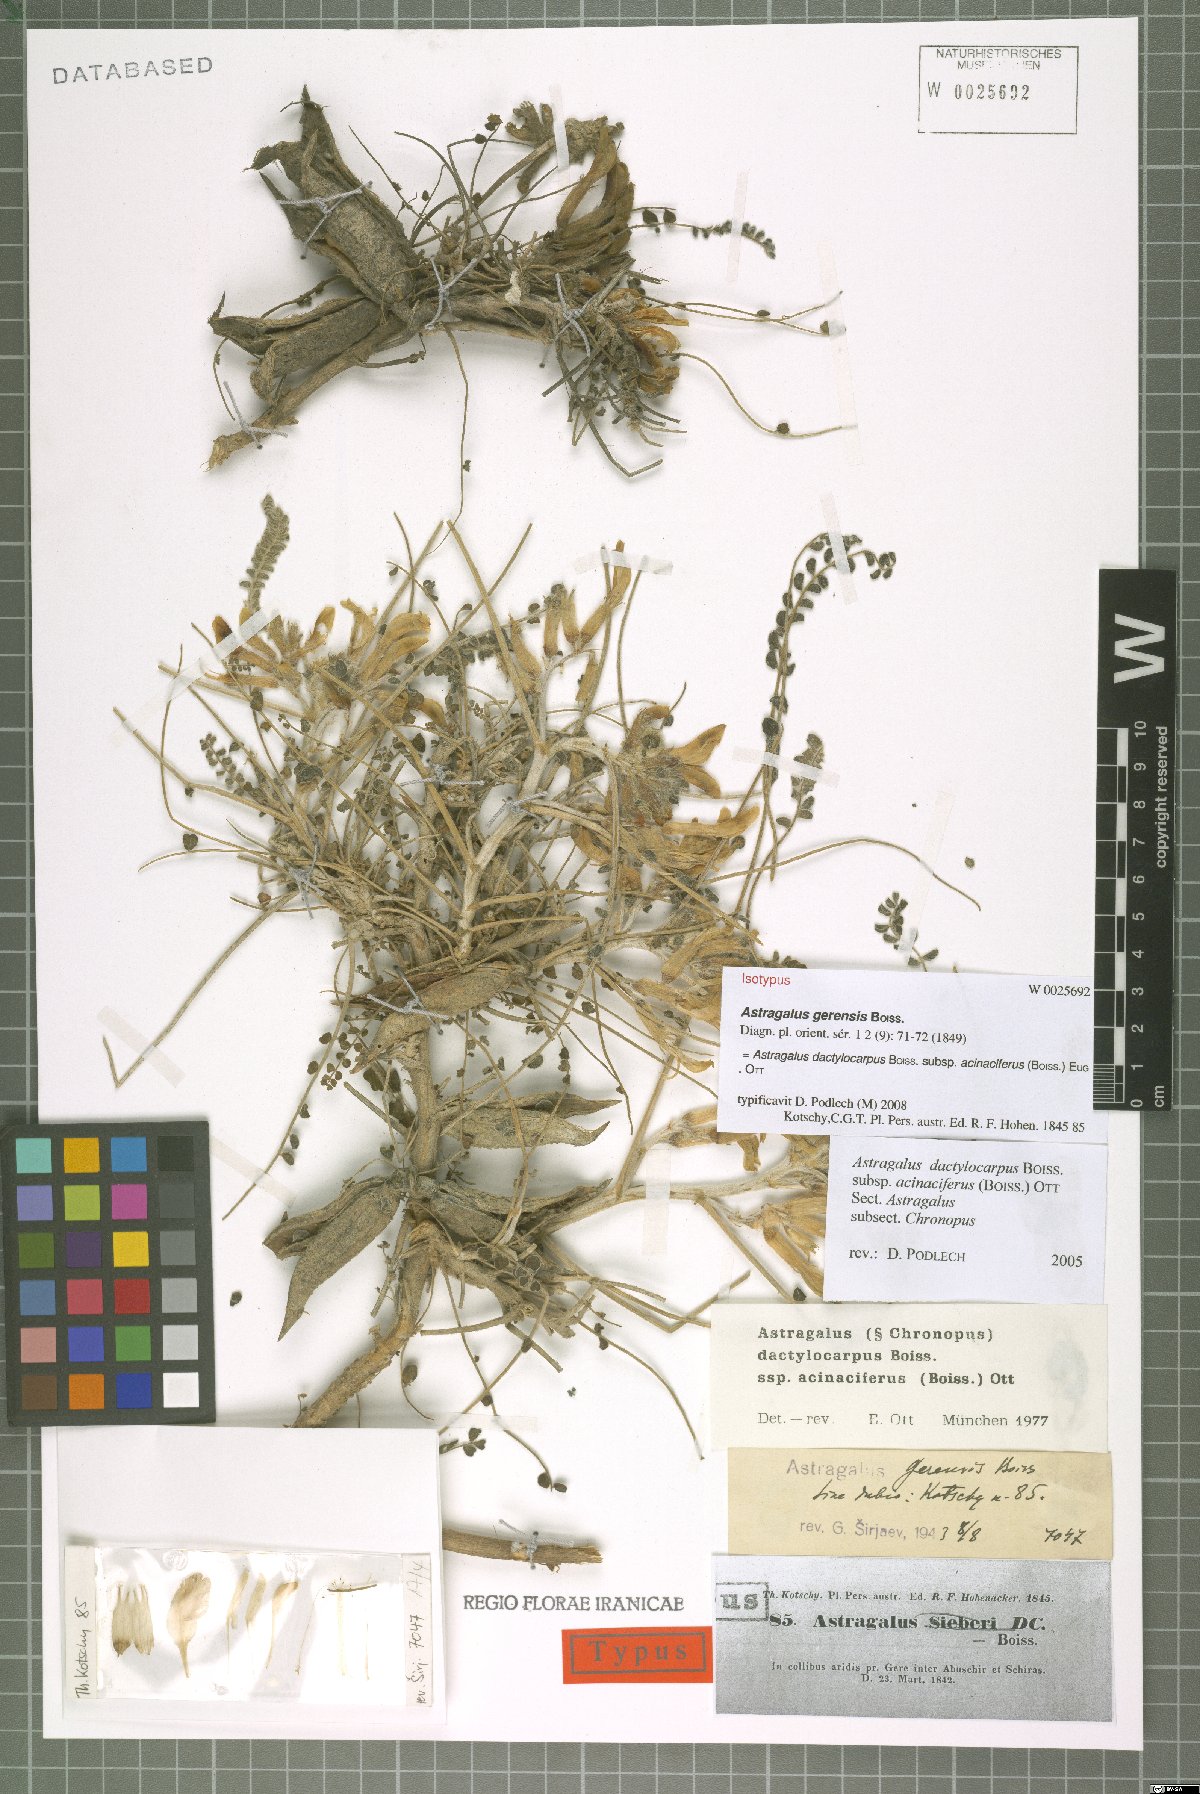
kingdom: Plantae
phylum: Tracheophyta
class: Magnoliopsida
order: Fabales
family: Fabaceae
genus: Astragalus
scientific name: Astragalus dactylocarpus
